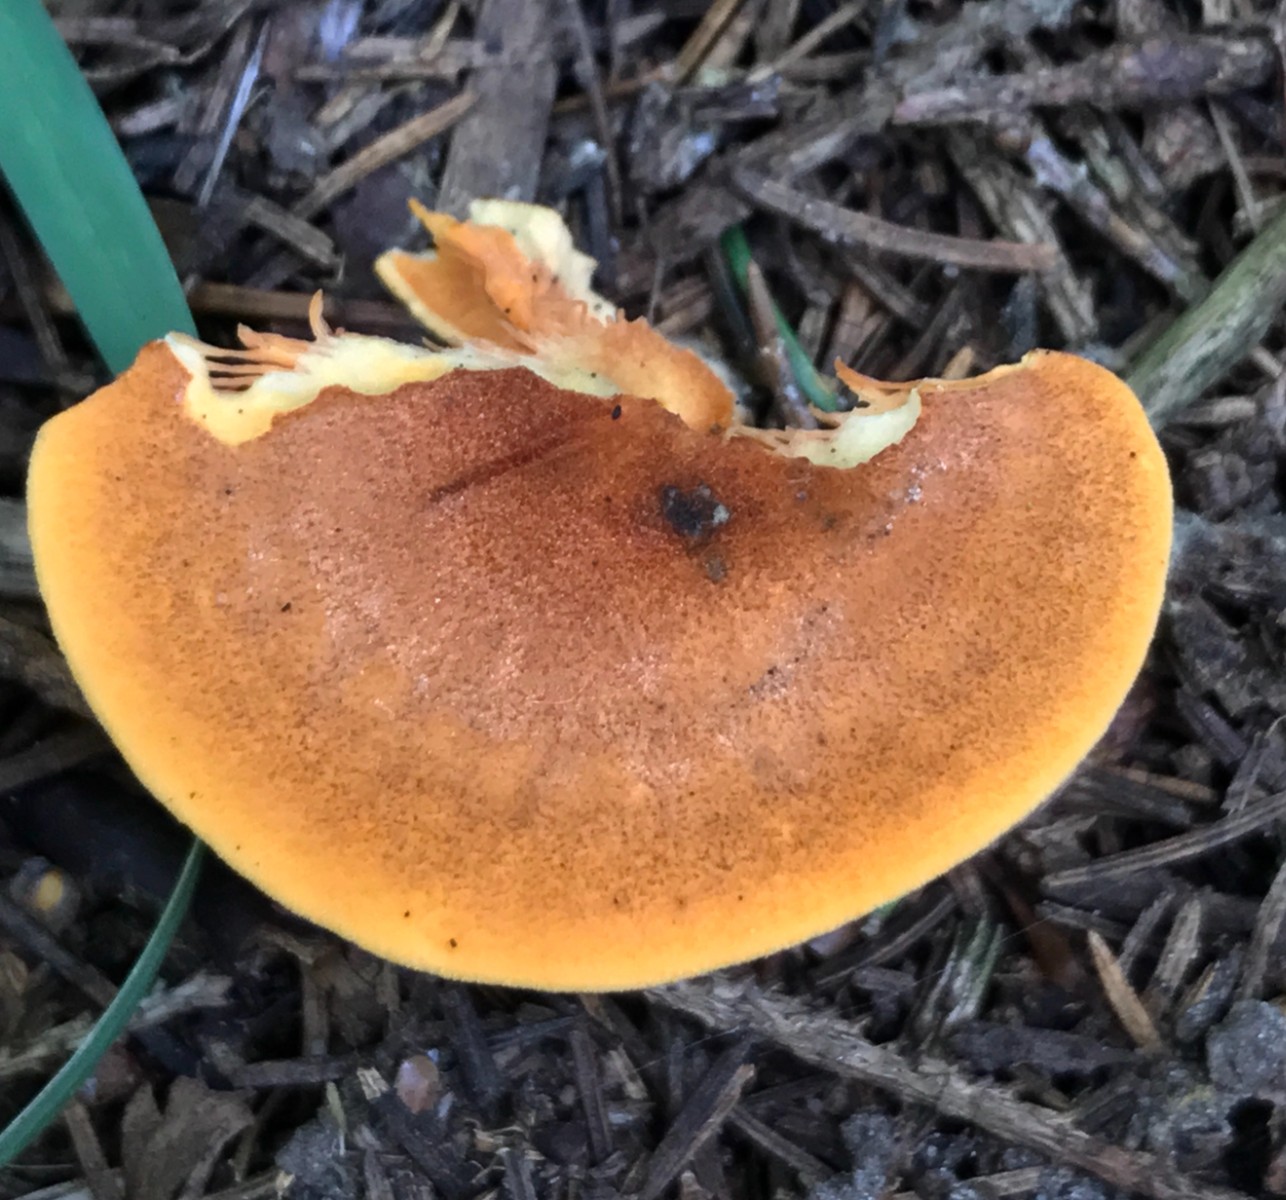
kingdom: Fungi
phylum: Basidiomycota
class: Agaricomycetes
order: Boletales
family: Hygrophoropsidaceae
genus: Hygrophoropsis
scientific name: Hygrophoropsis aurantiaca
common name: almindelig orangekantarel
